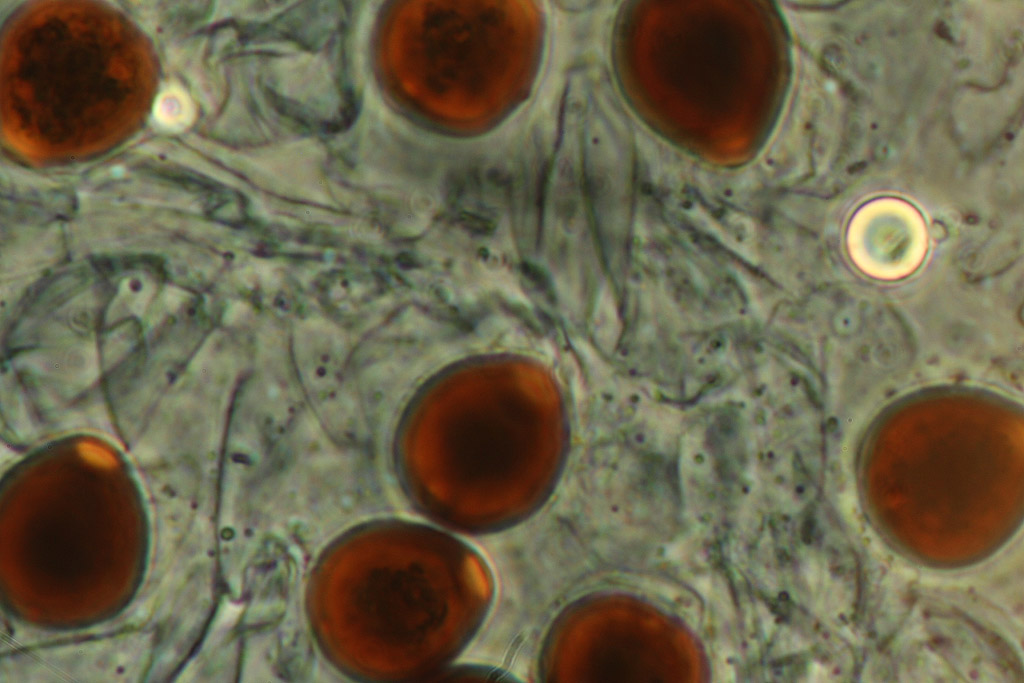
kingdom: Fungi
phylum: Basidiomycota
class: Agaricomycetes
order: Agaricales
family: Psathyrellaceae
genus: Parasola
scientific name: Parasola lactea
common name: glat hjulhat
